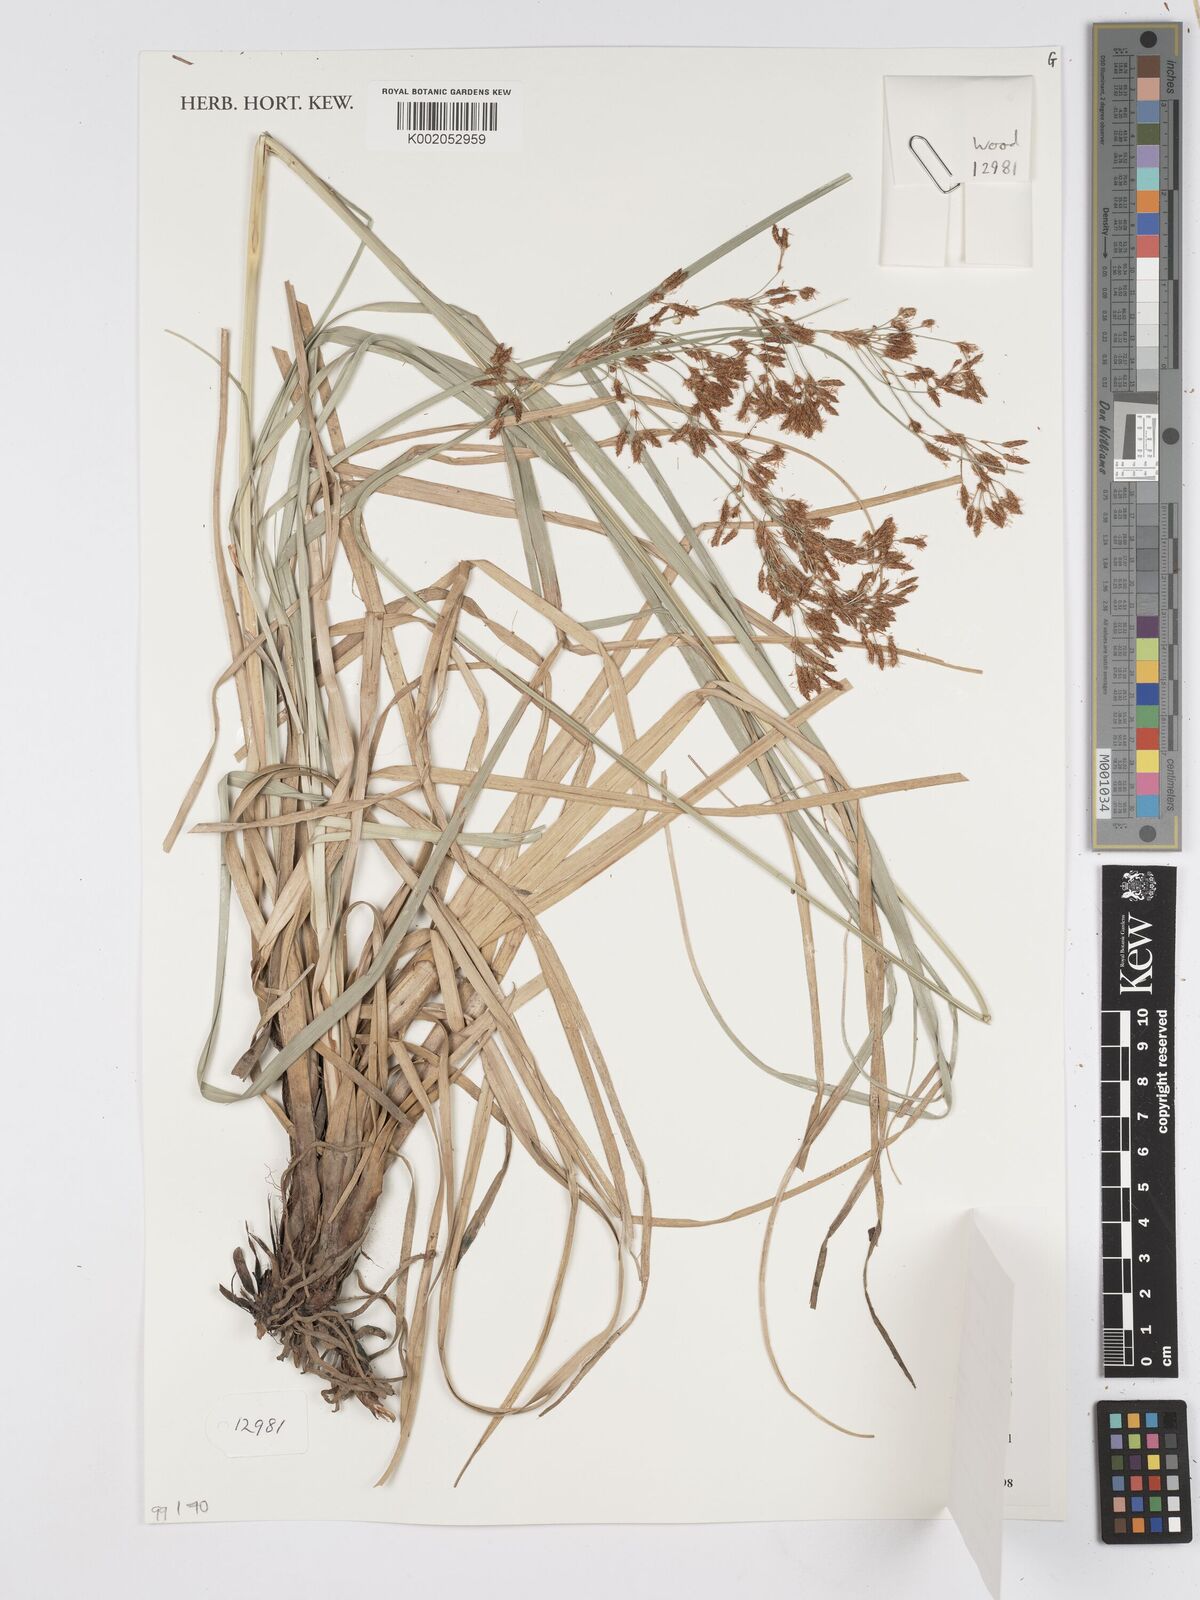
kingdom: Plantae
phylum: Tracheophyta
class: Liliopsida
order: Poales
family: Cyperaceae
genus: Scirpus
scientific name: Scirpus
